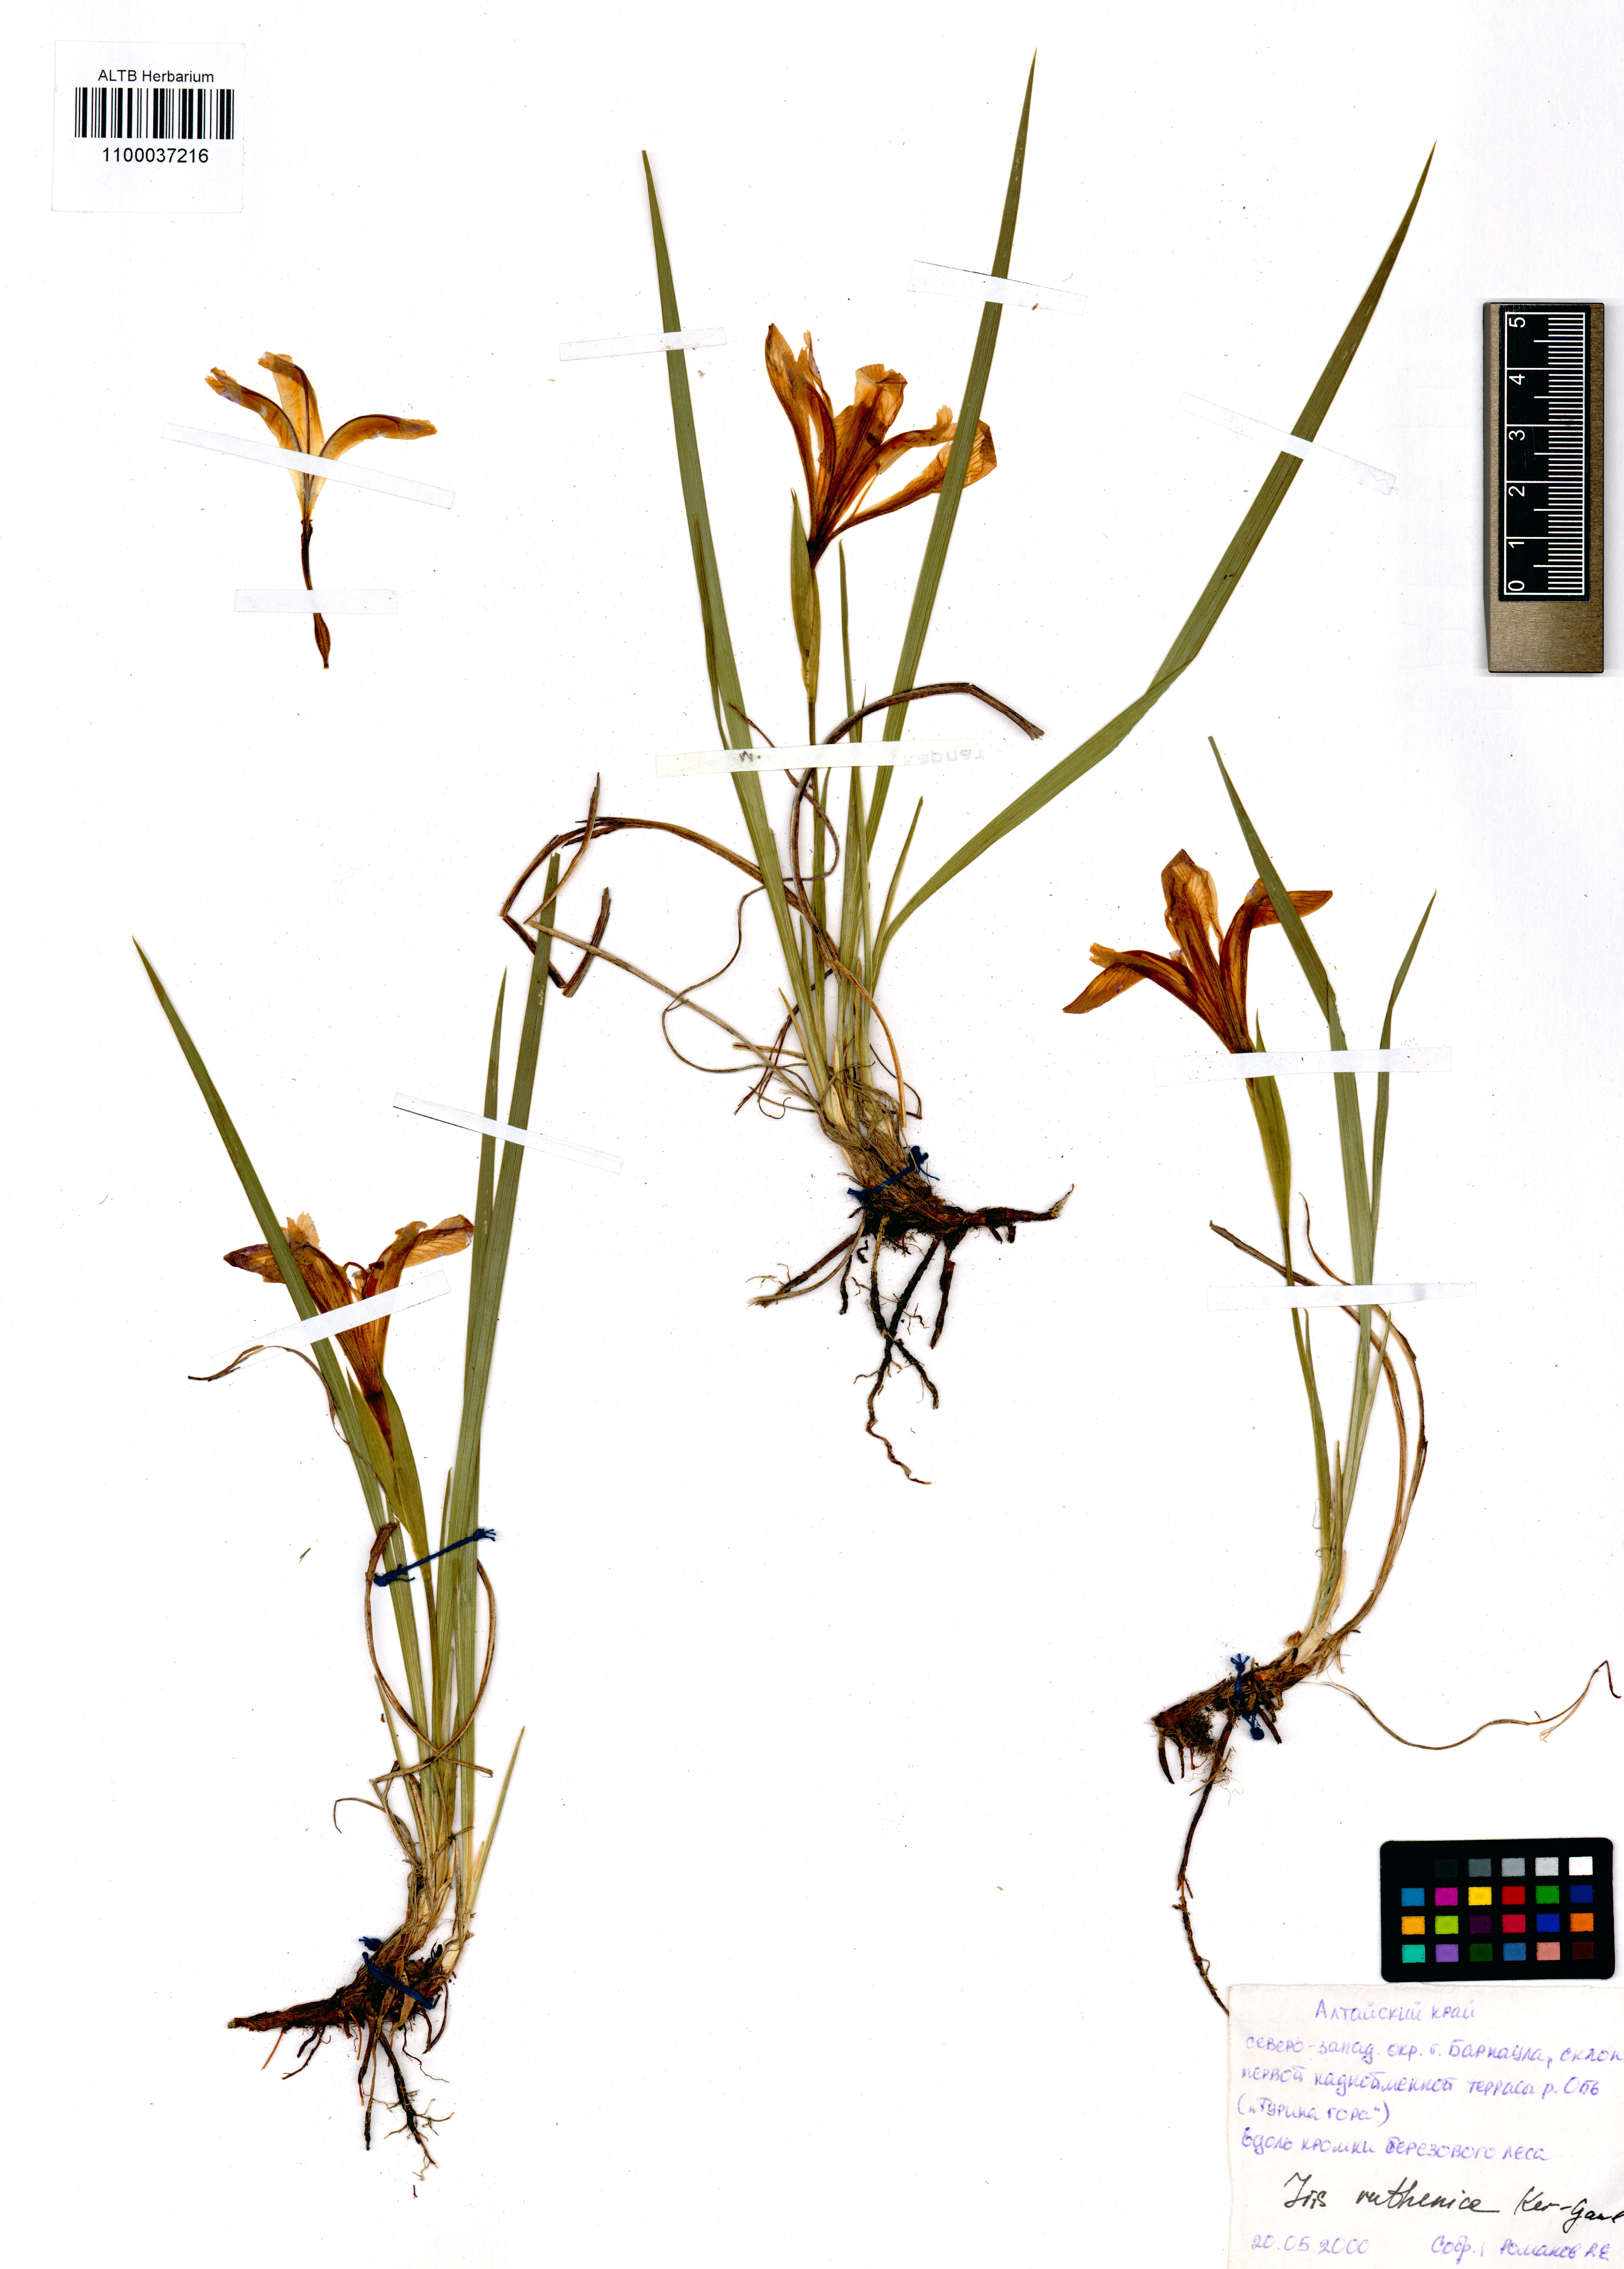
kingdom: Plantae
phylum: Tracheophyta
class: Liliopsida
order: Asparagales
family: Iridaceae
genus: Iris
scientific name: Iris ruthenica
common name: Purple-bract iris
